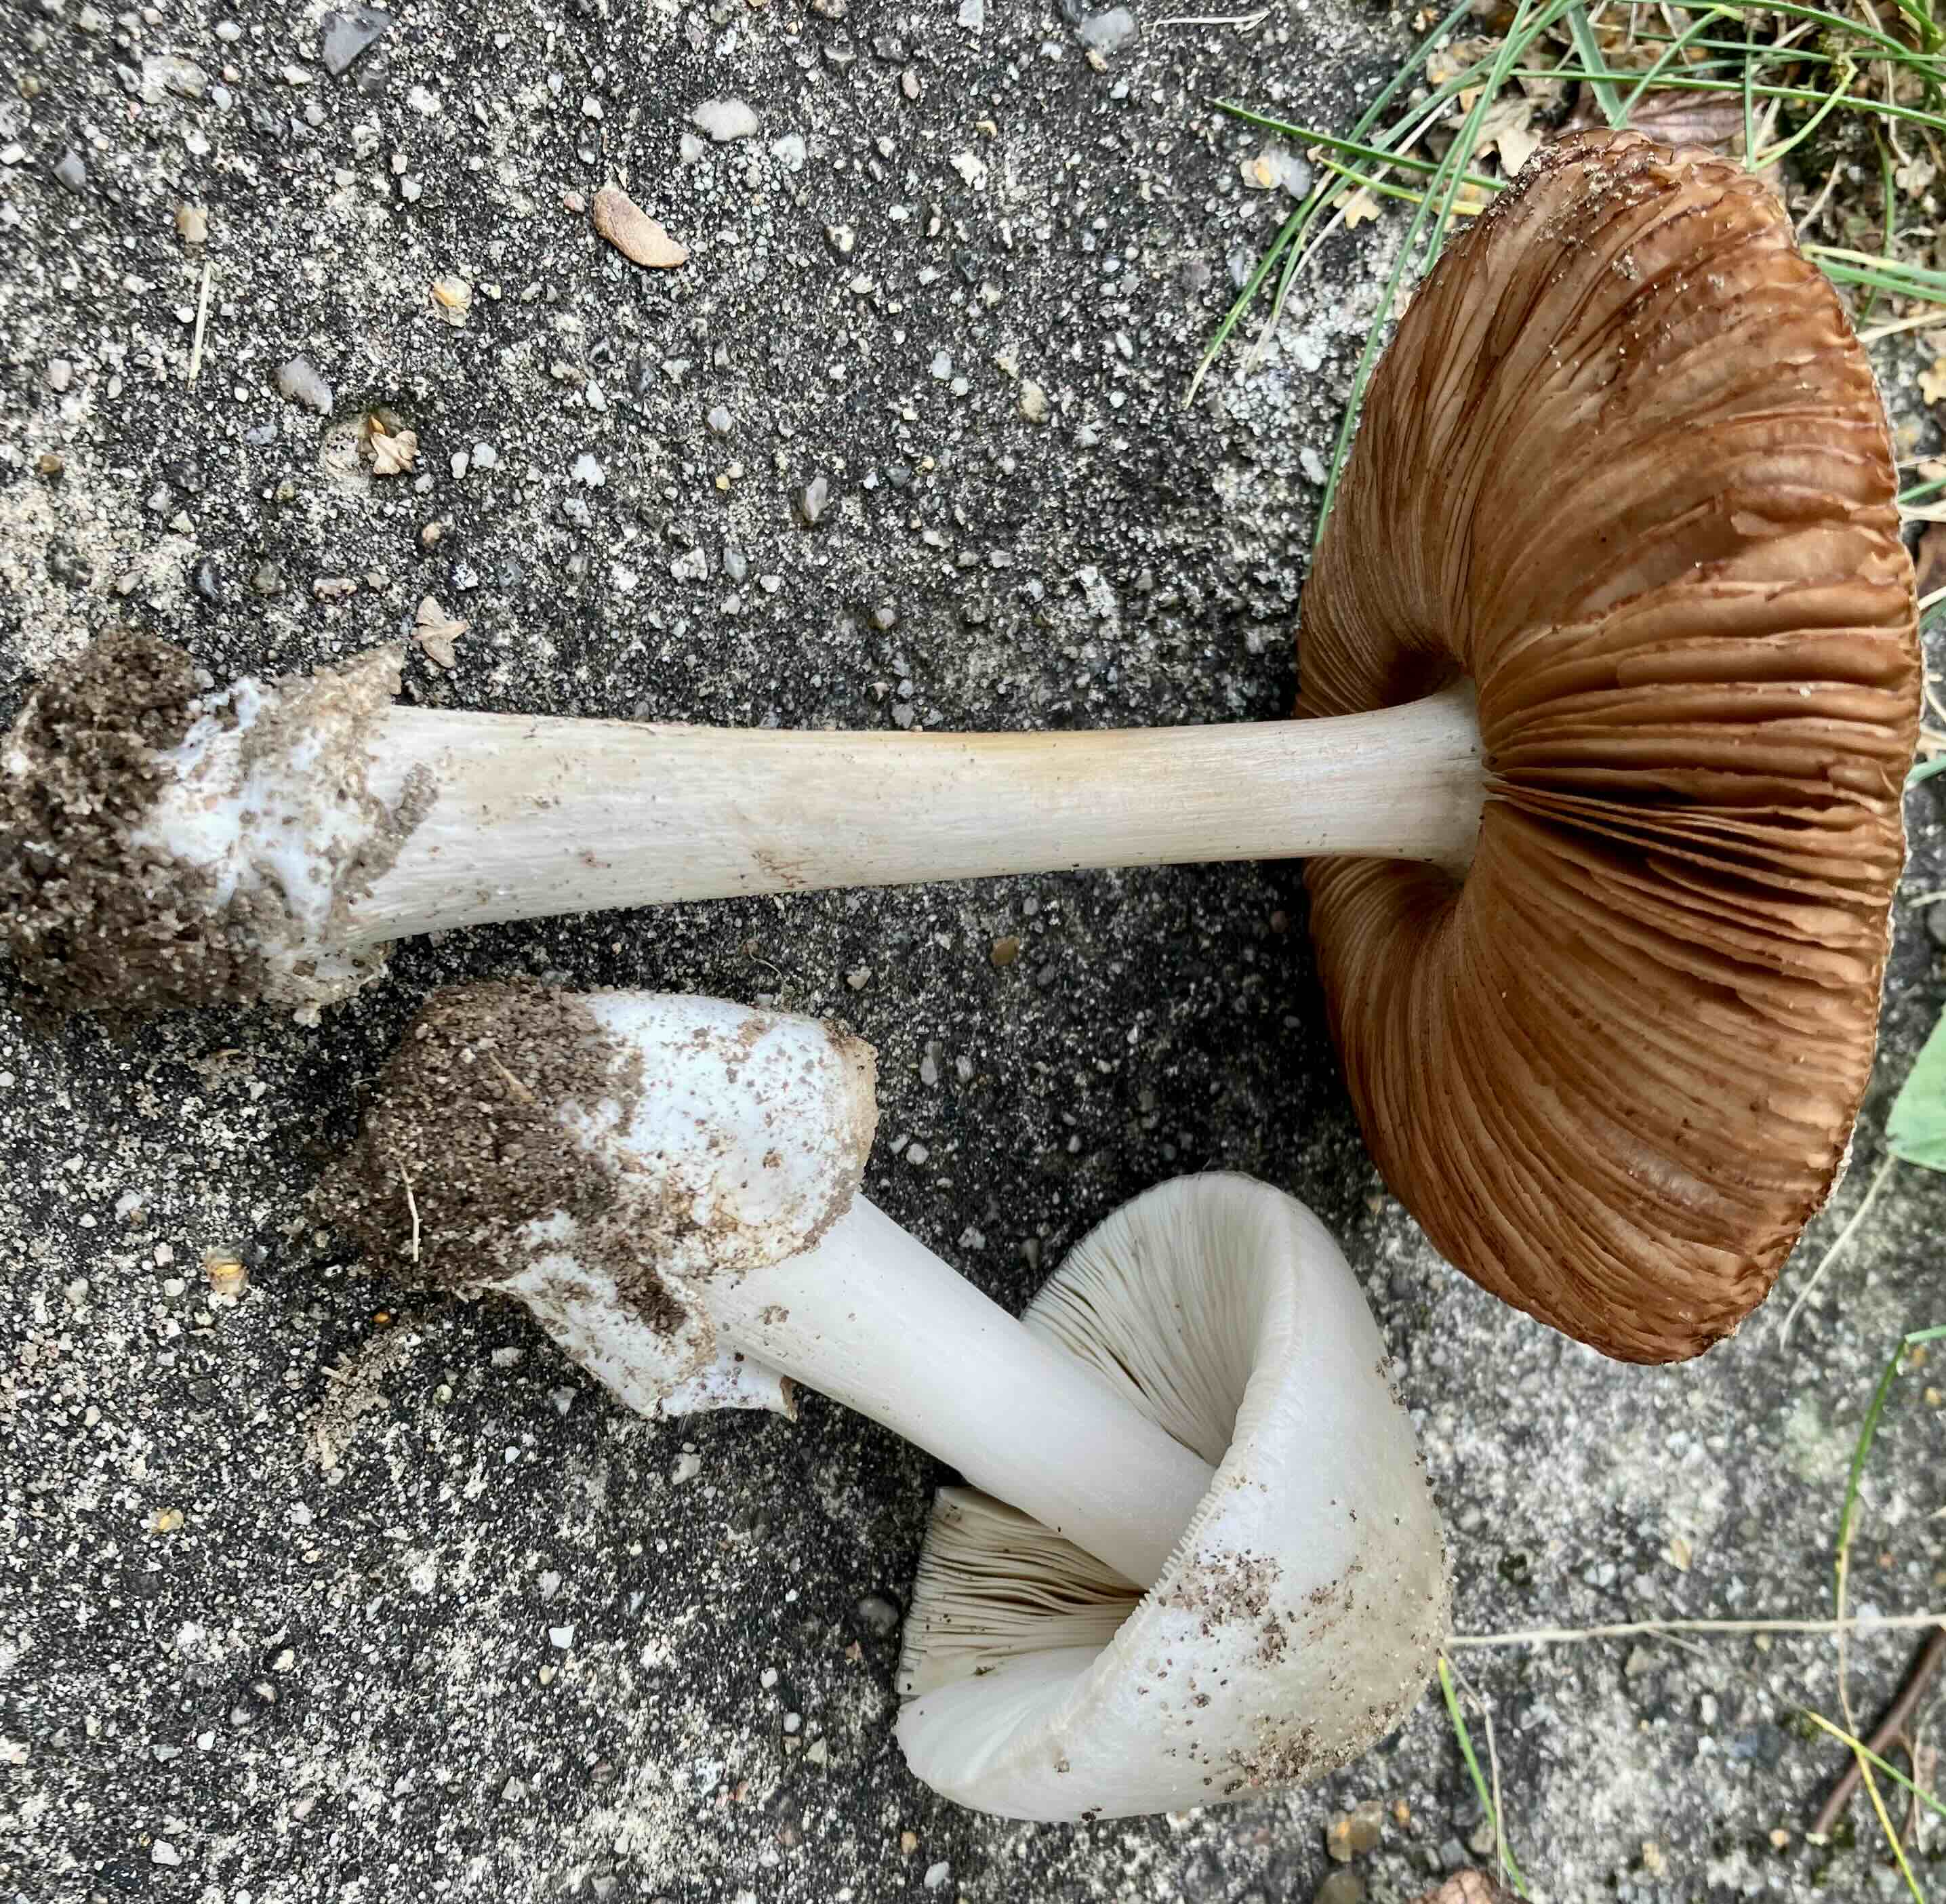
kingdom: Fungi
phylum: Basidiomycota
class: Agaricomycetes
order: Agaricales
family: Pluteaceae
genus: Volvopluteus
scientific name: Volvopluteus gloiocephalus
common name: høj posesvamp
